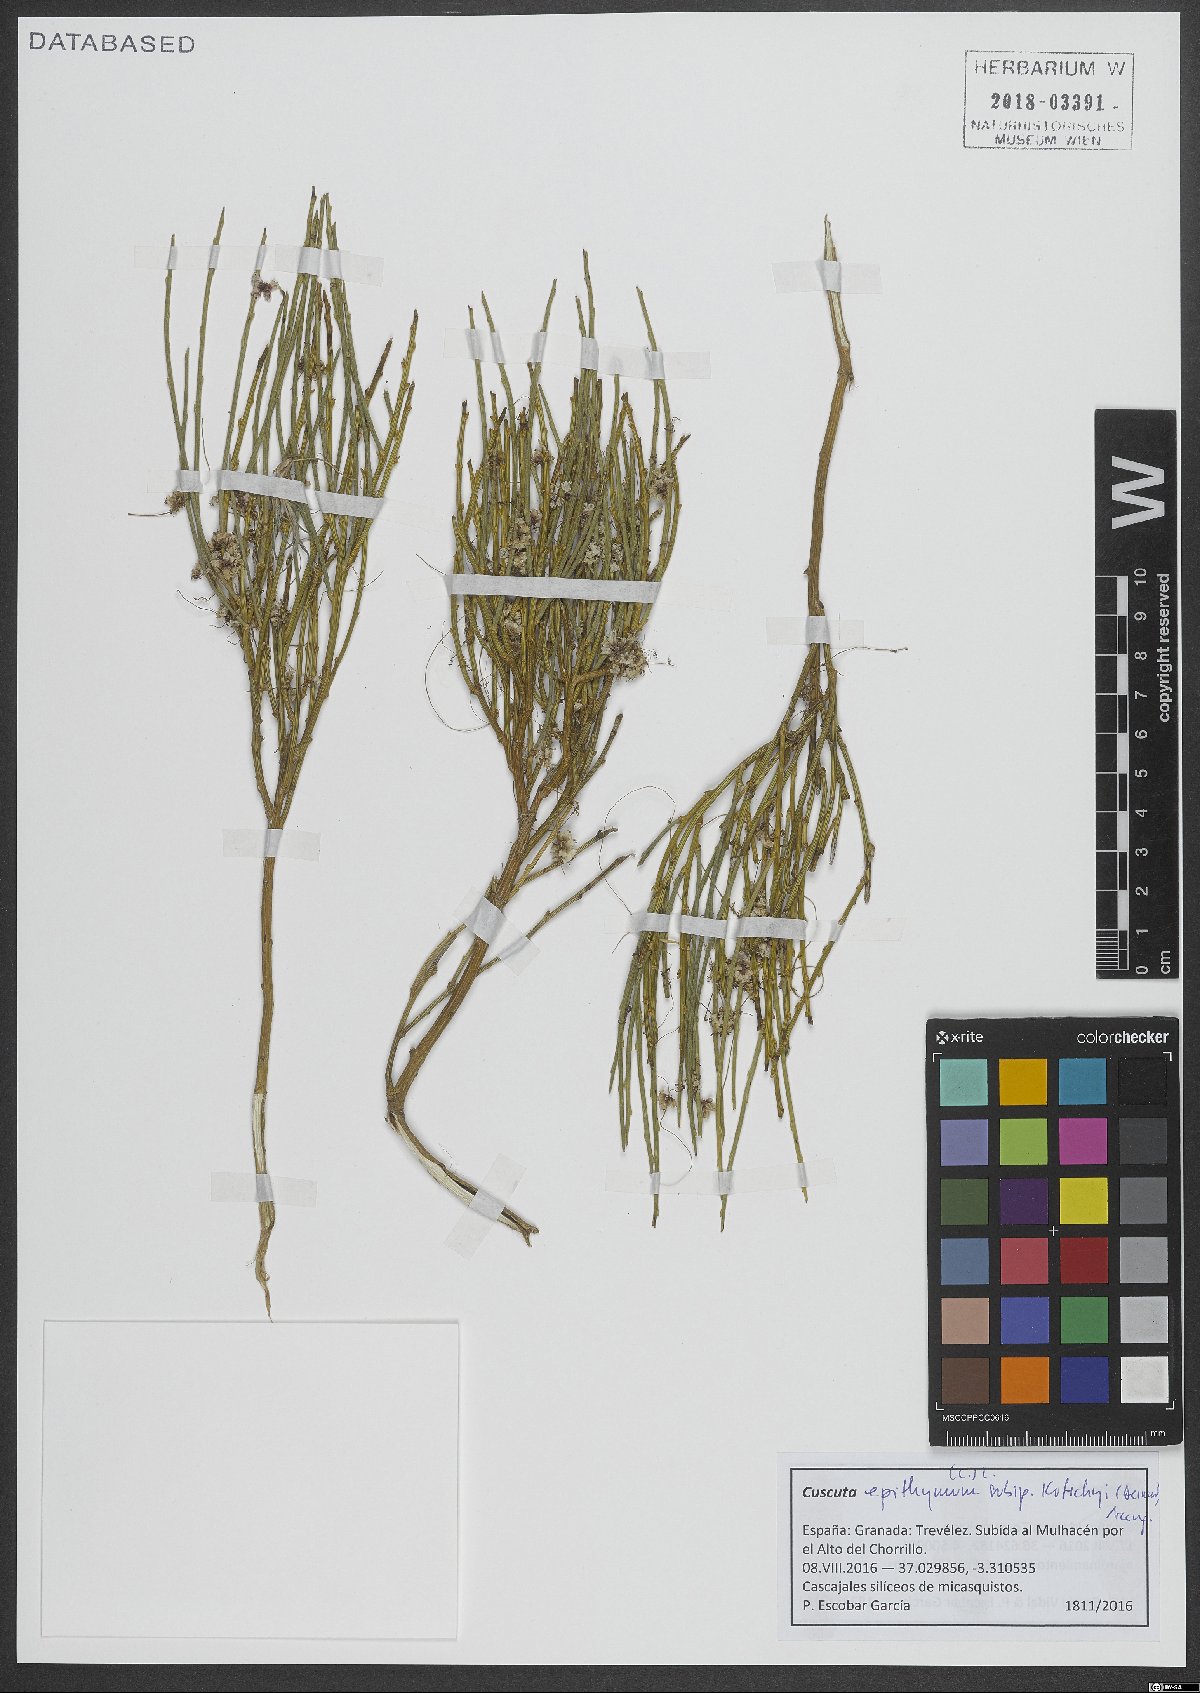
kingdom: Plantae
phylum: Tracheophyta
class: Magnoliopsida
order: Solanales
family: Convolvulaceae
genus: Cuscuta
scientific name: Cuscuta epithymum
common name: Clover dodder
